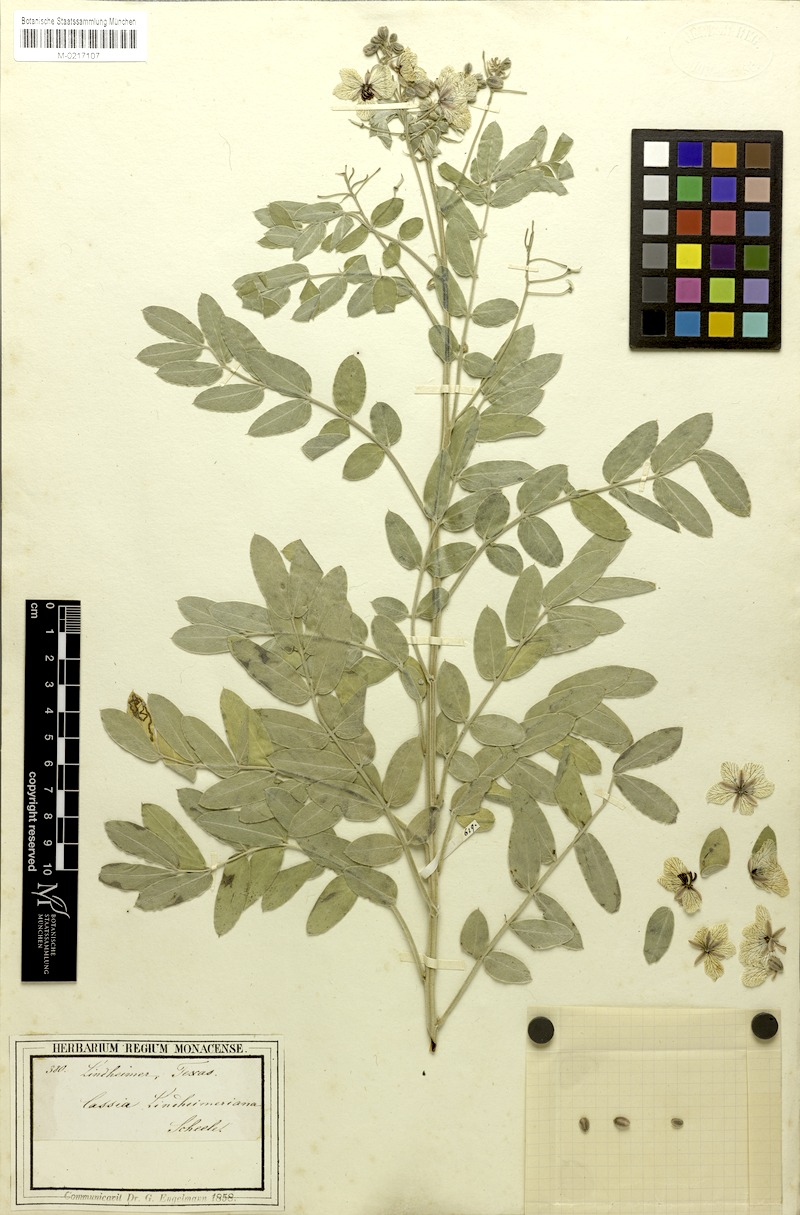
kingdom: Plantae
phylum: Tracheophyta
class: Magnoliopsida
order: Fabales
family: Fabaceae
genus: Senna
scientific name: Senna lindheimeriana
